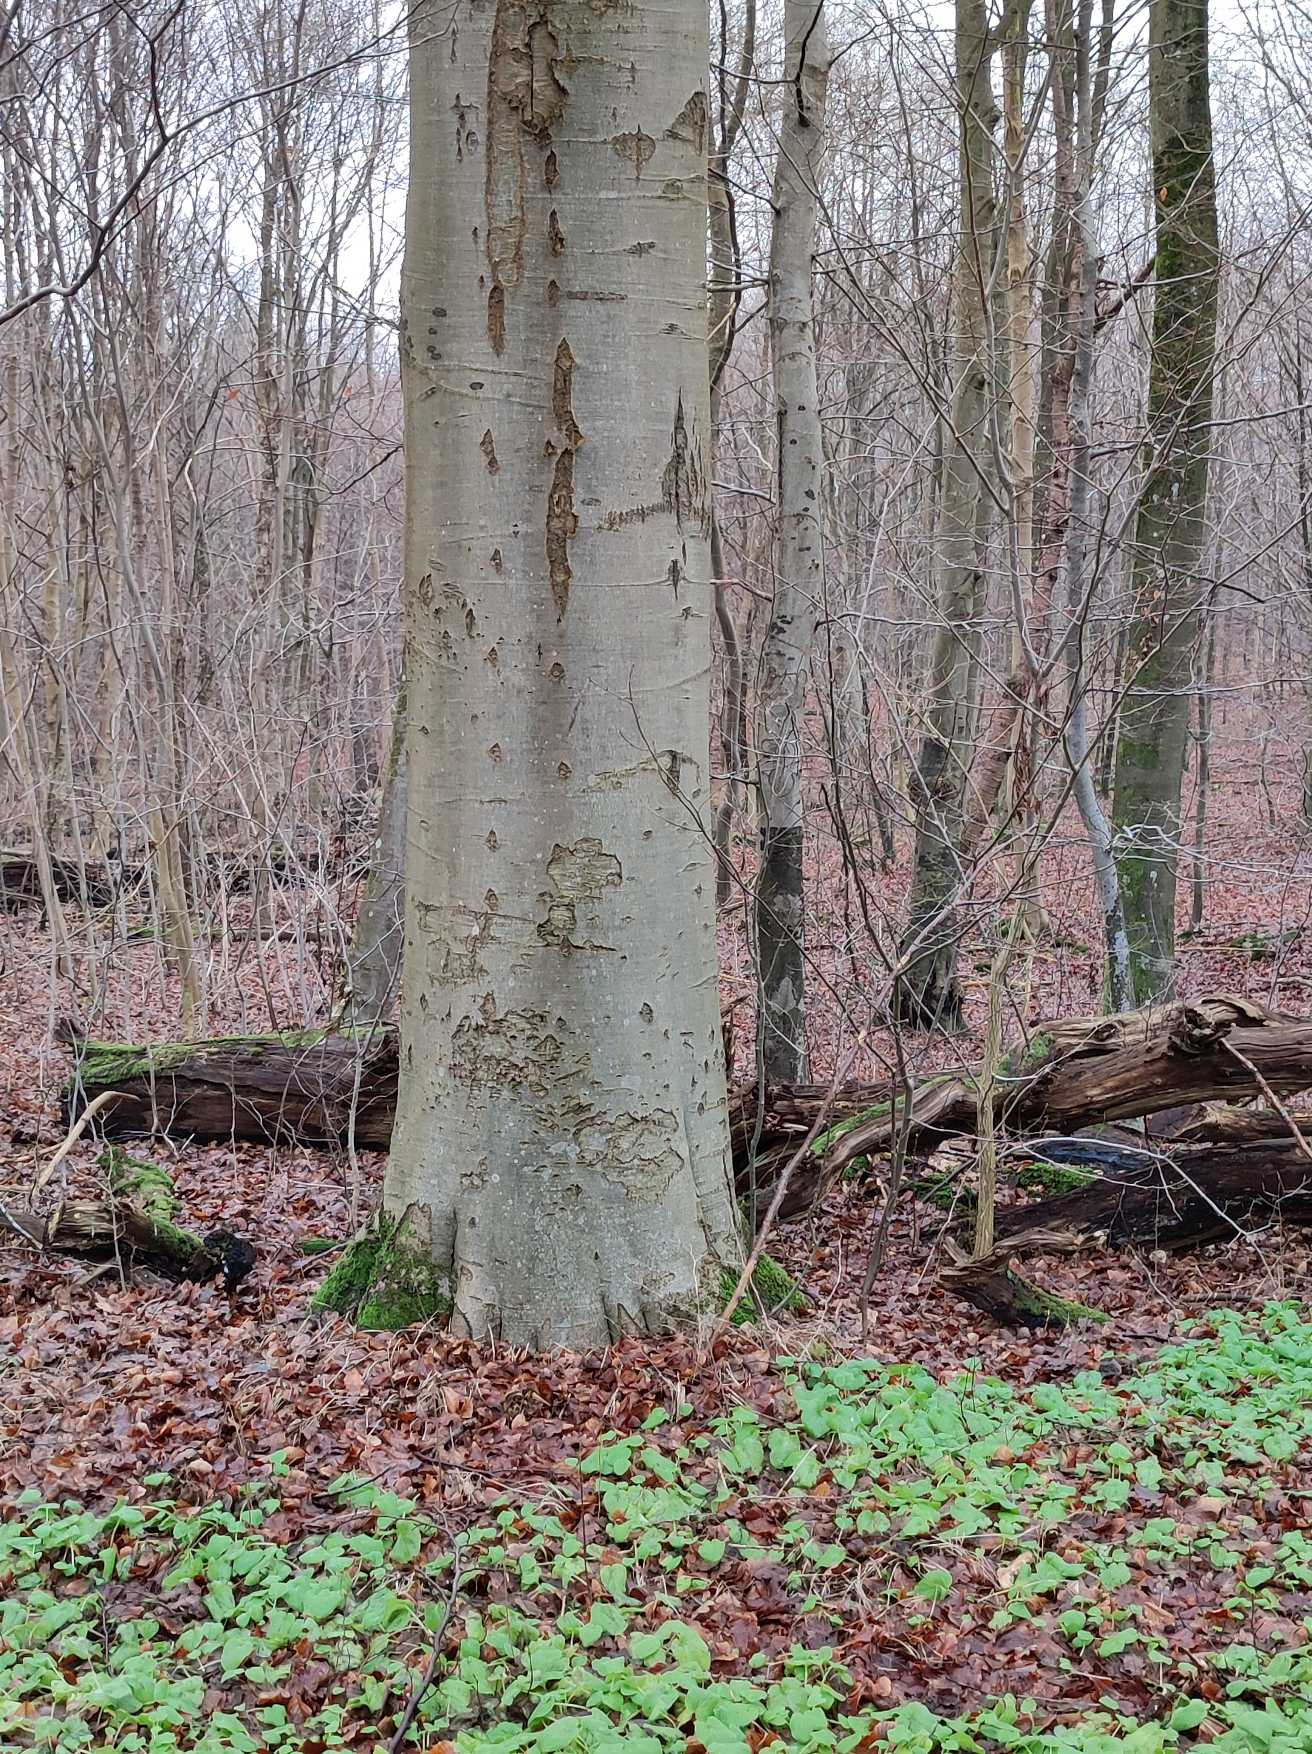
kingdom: Plantae
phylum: Tracheophyta
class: Magnoliopsida
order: Fagales
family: Fagaceae
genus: Fagus
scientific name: Fagus sylvatica
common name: Bøg
